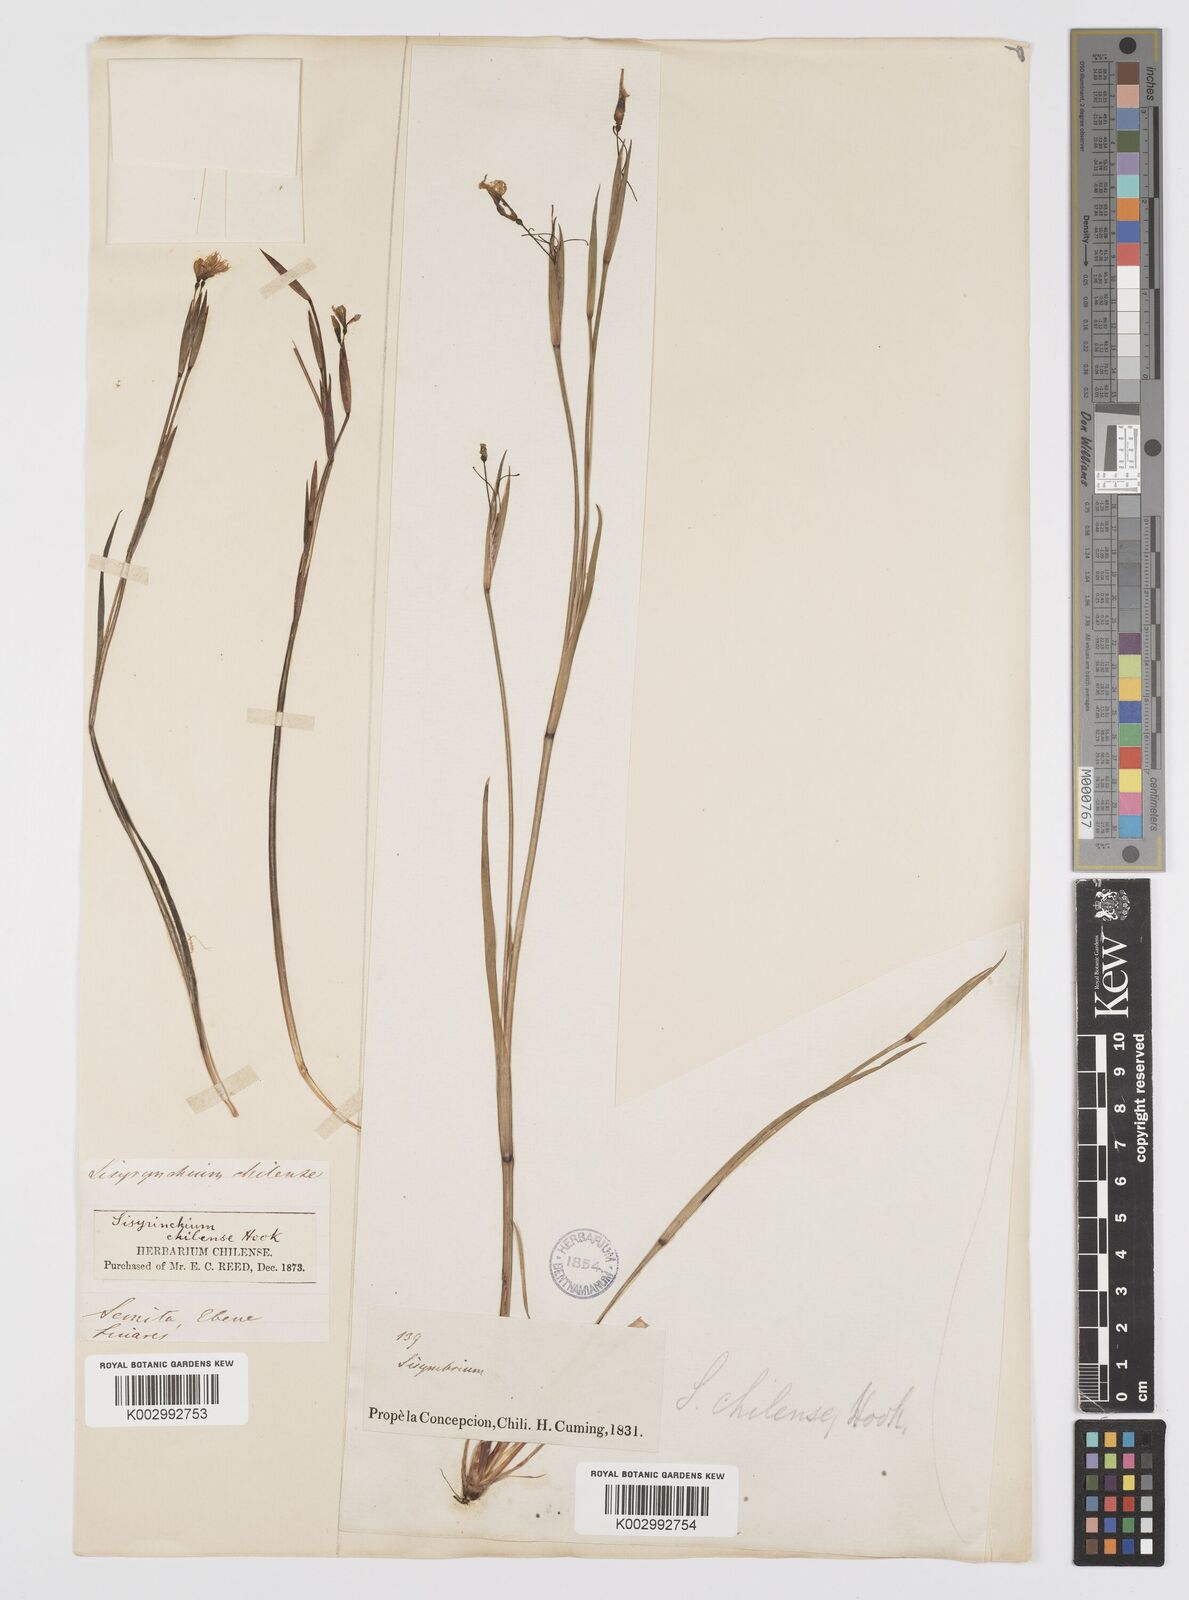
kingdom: Plantae
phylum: Tracheophyta
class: Liliopsida
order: Asparagales
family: Iridaceae
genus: Sisyrinchium
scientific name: Sisyrinchium chilense
